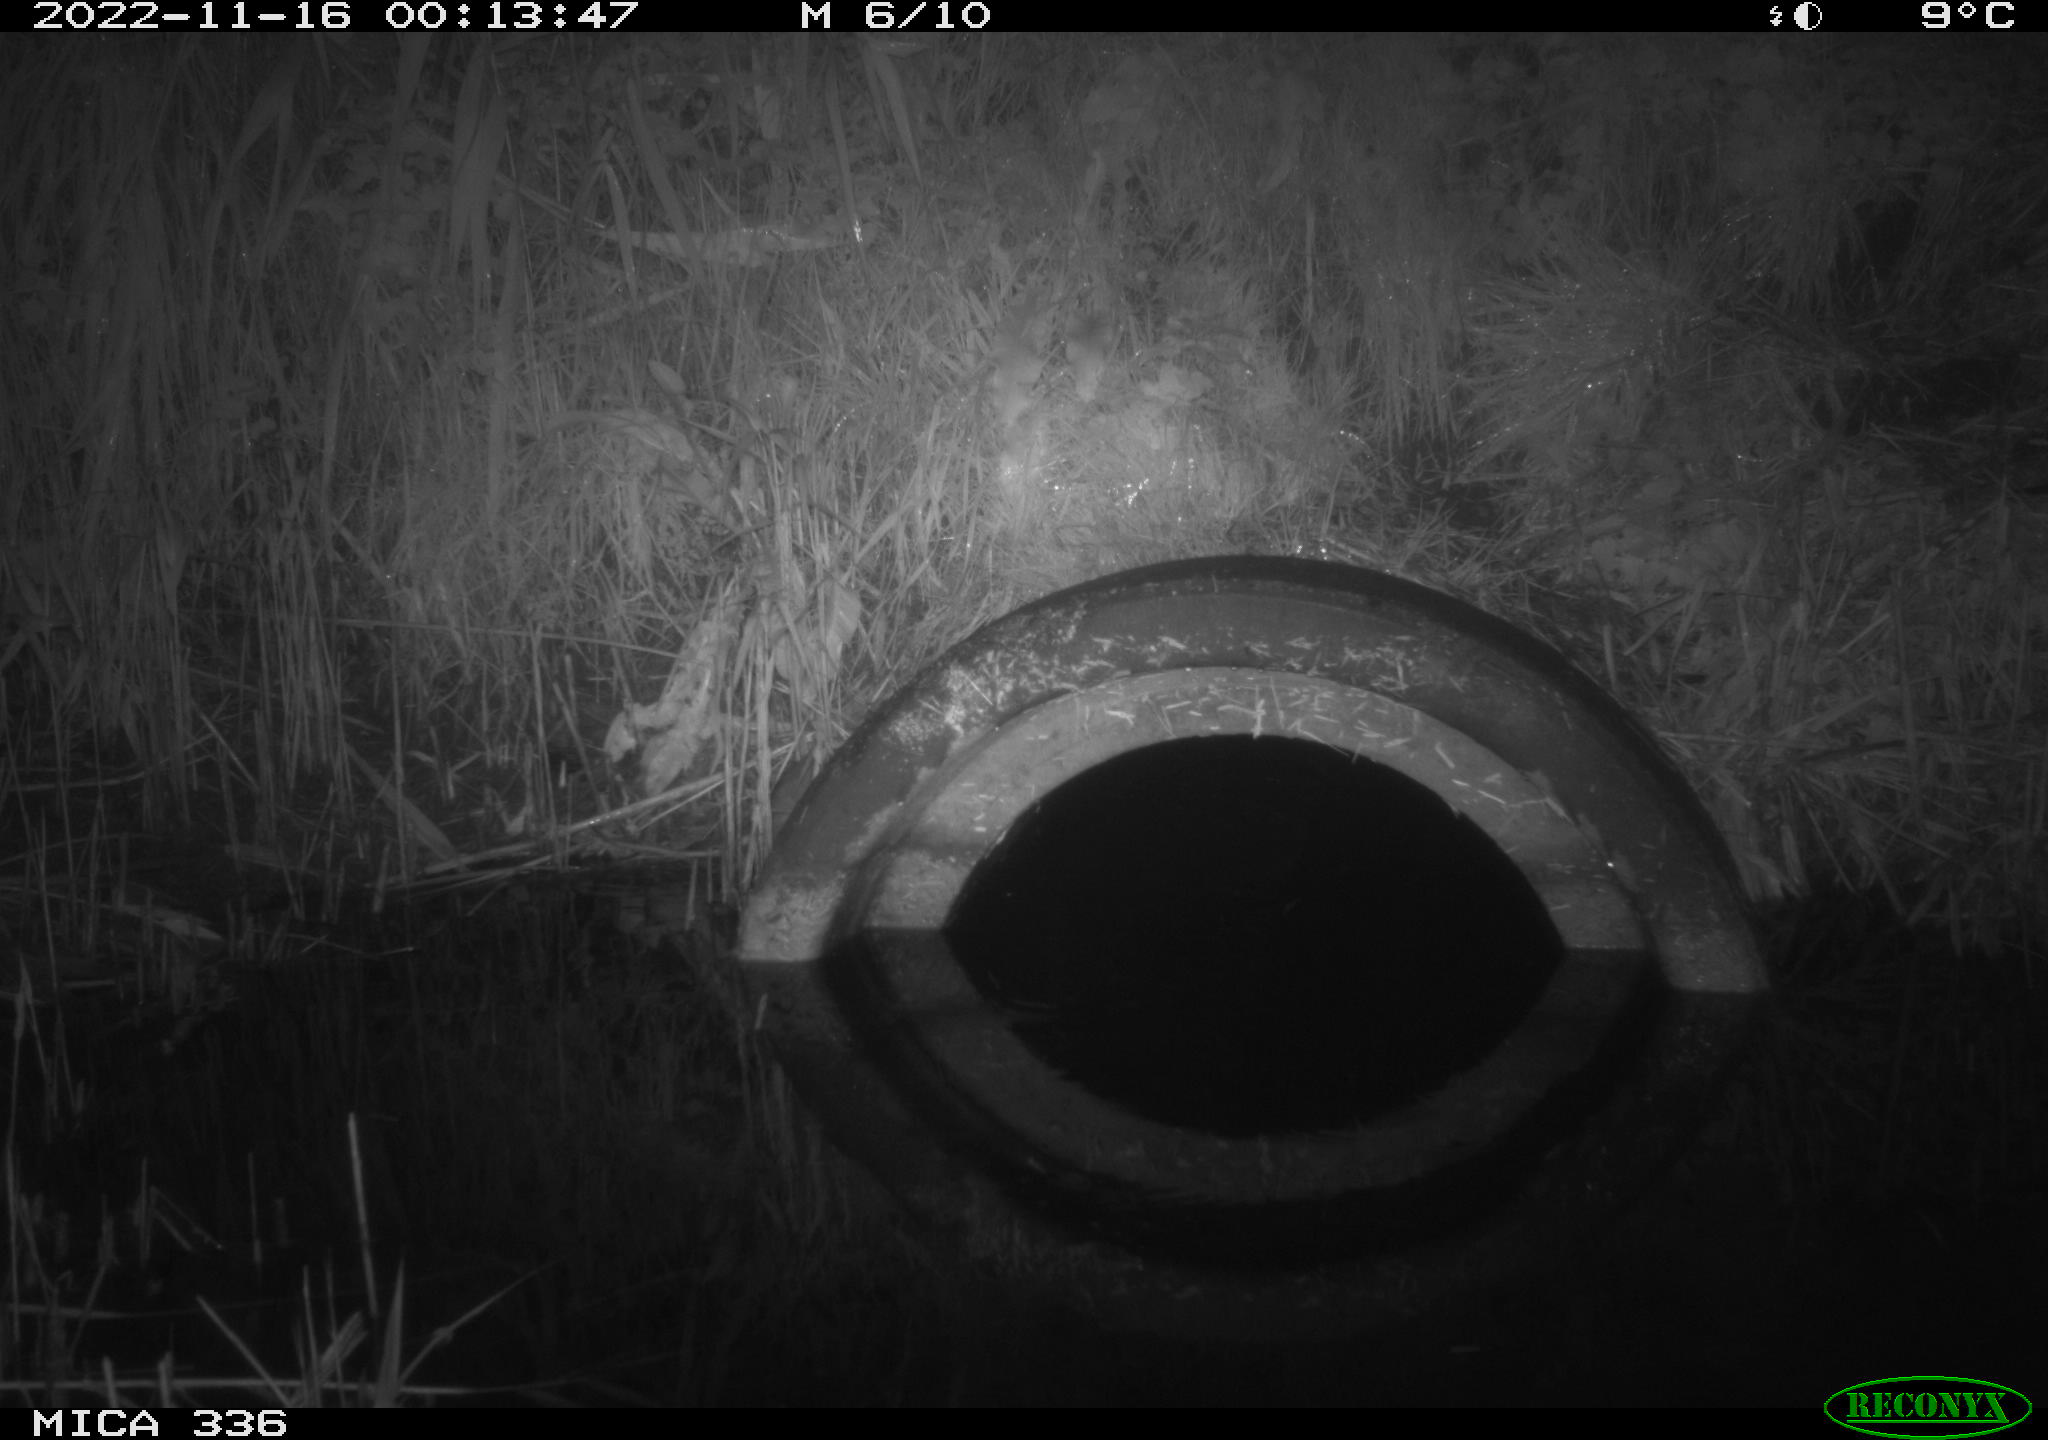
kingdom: Animalia
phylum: Chordata
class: Mammalia
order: Rodentia
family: Muridae
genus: Rattus
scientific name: Rattus norvegicus
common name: Brown rat
